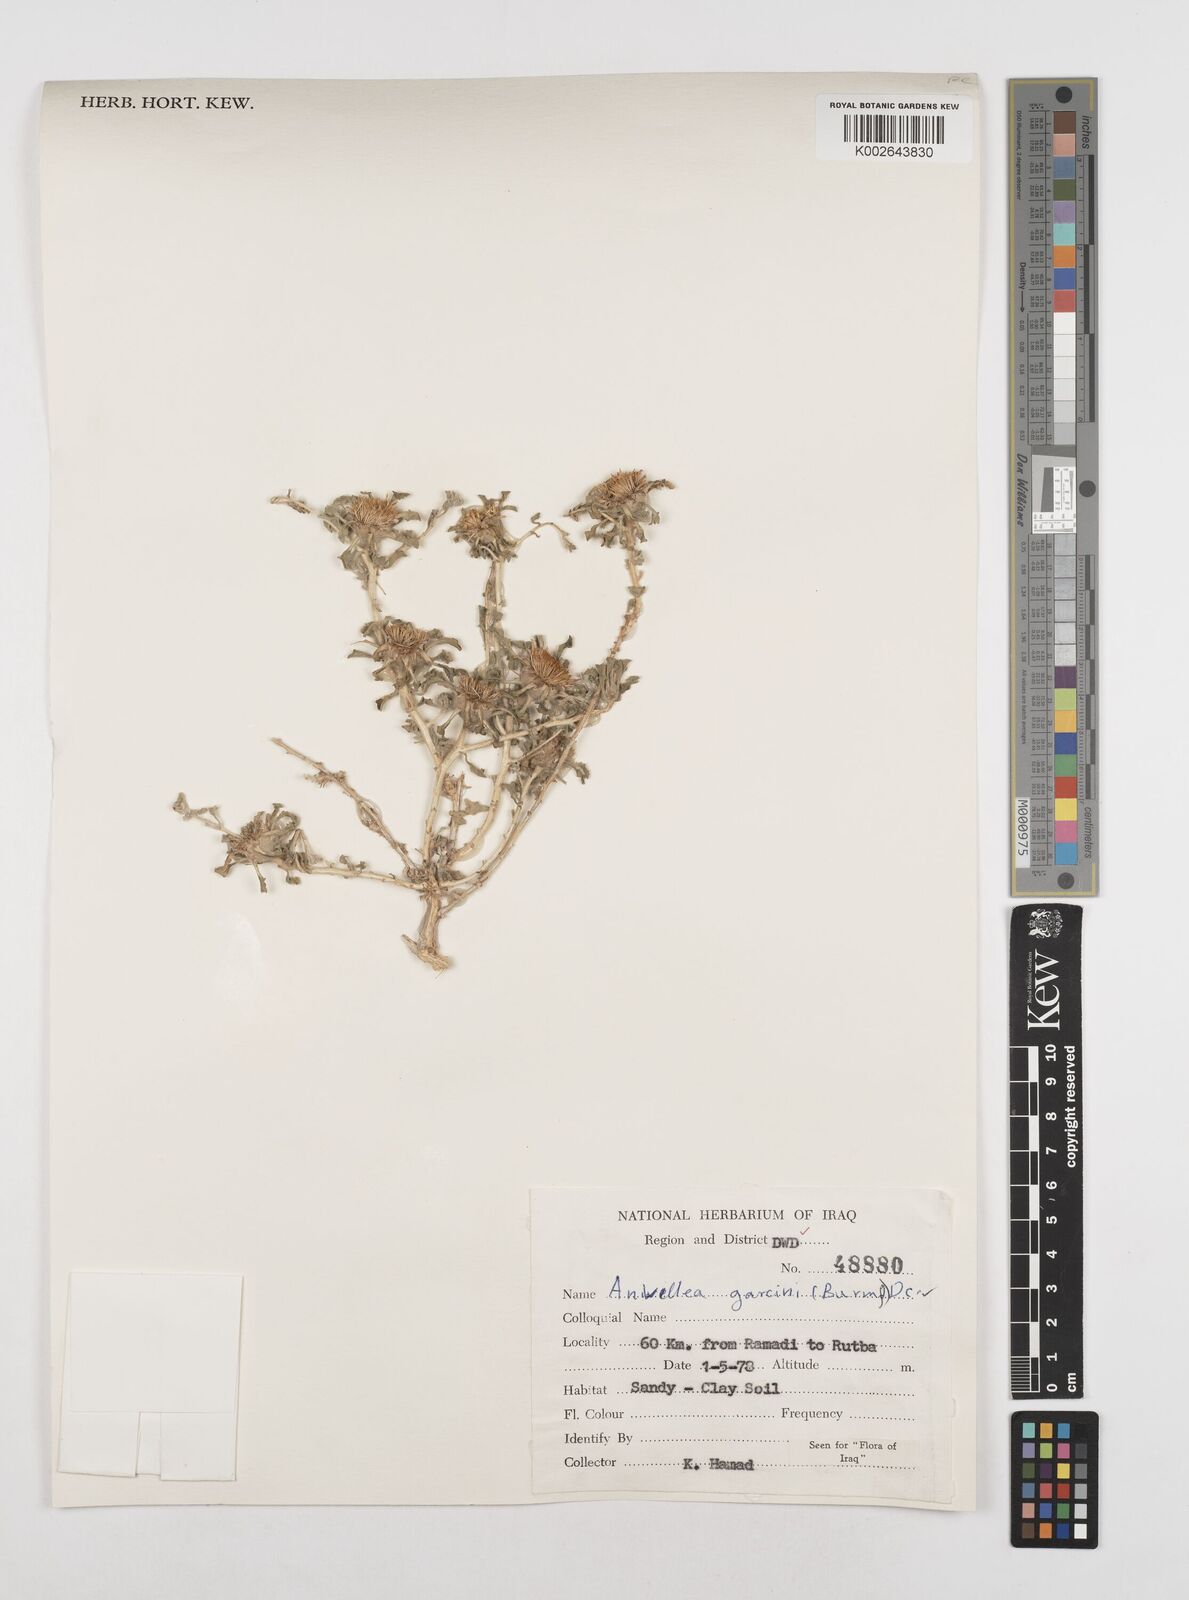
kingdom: Plantae
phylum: Tracheophyta
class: Magnoliopsida
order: Asterales
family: Asteraceae
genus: Anvillea
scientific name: Anvillea garcinii
